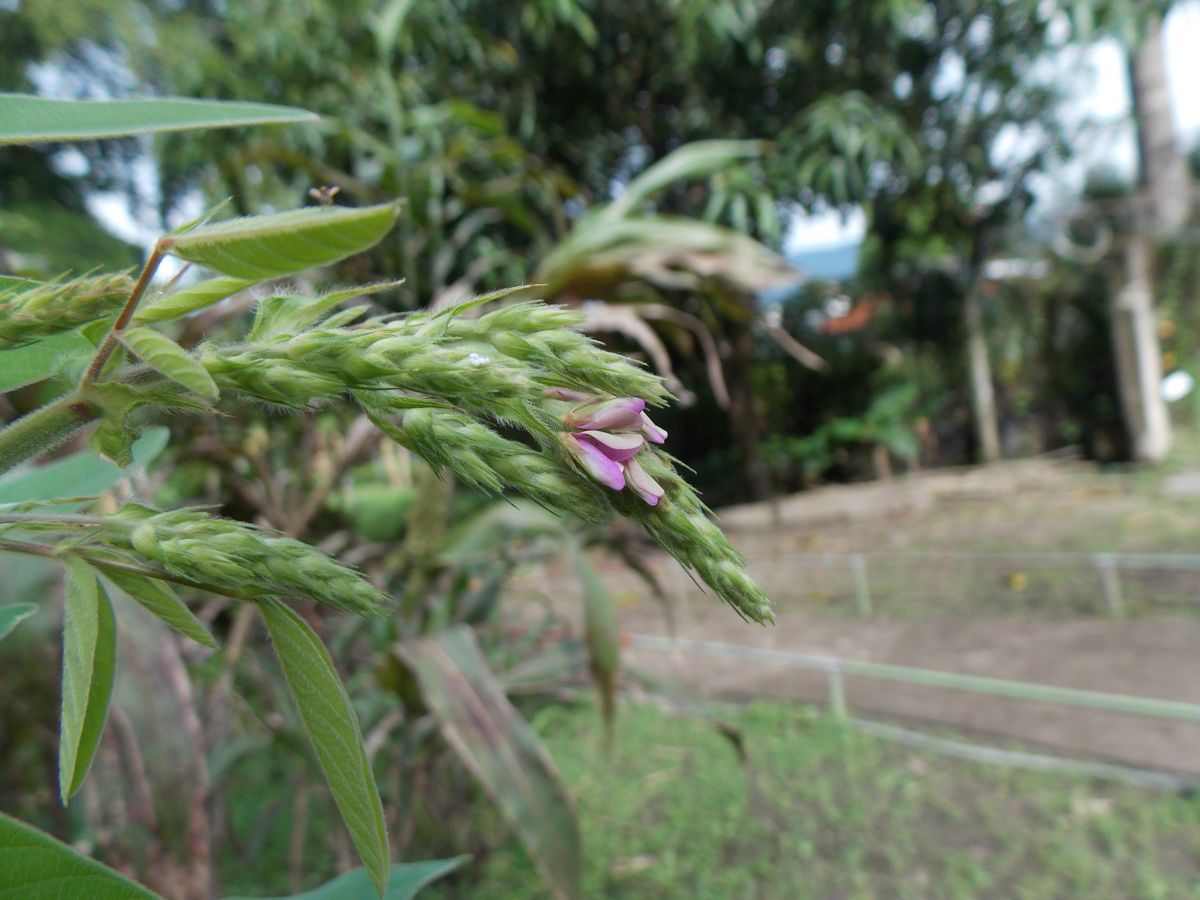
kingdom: Plantae
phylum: Tracheophyta
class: Magnoliopsida
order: Fabales
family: Fabaceae
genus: Desmodium
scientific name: Desmodium tortuosum
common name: Dixie ticktrefoil
